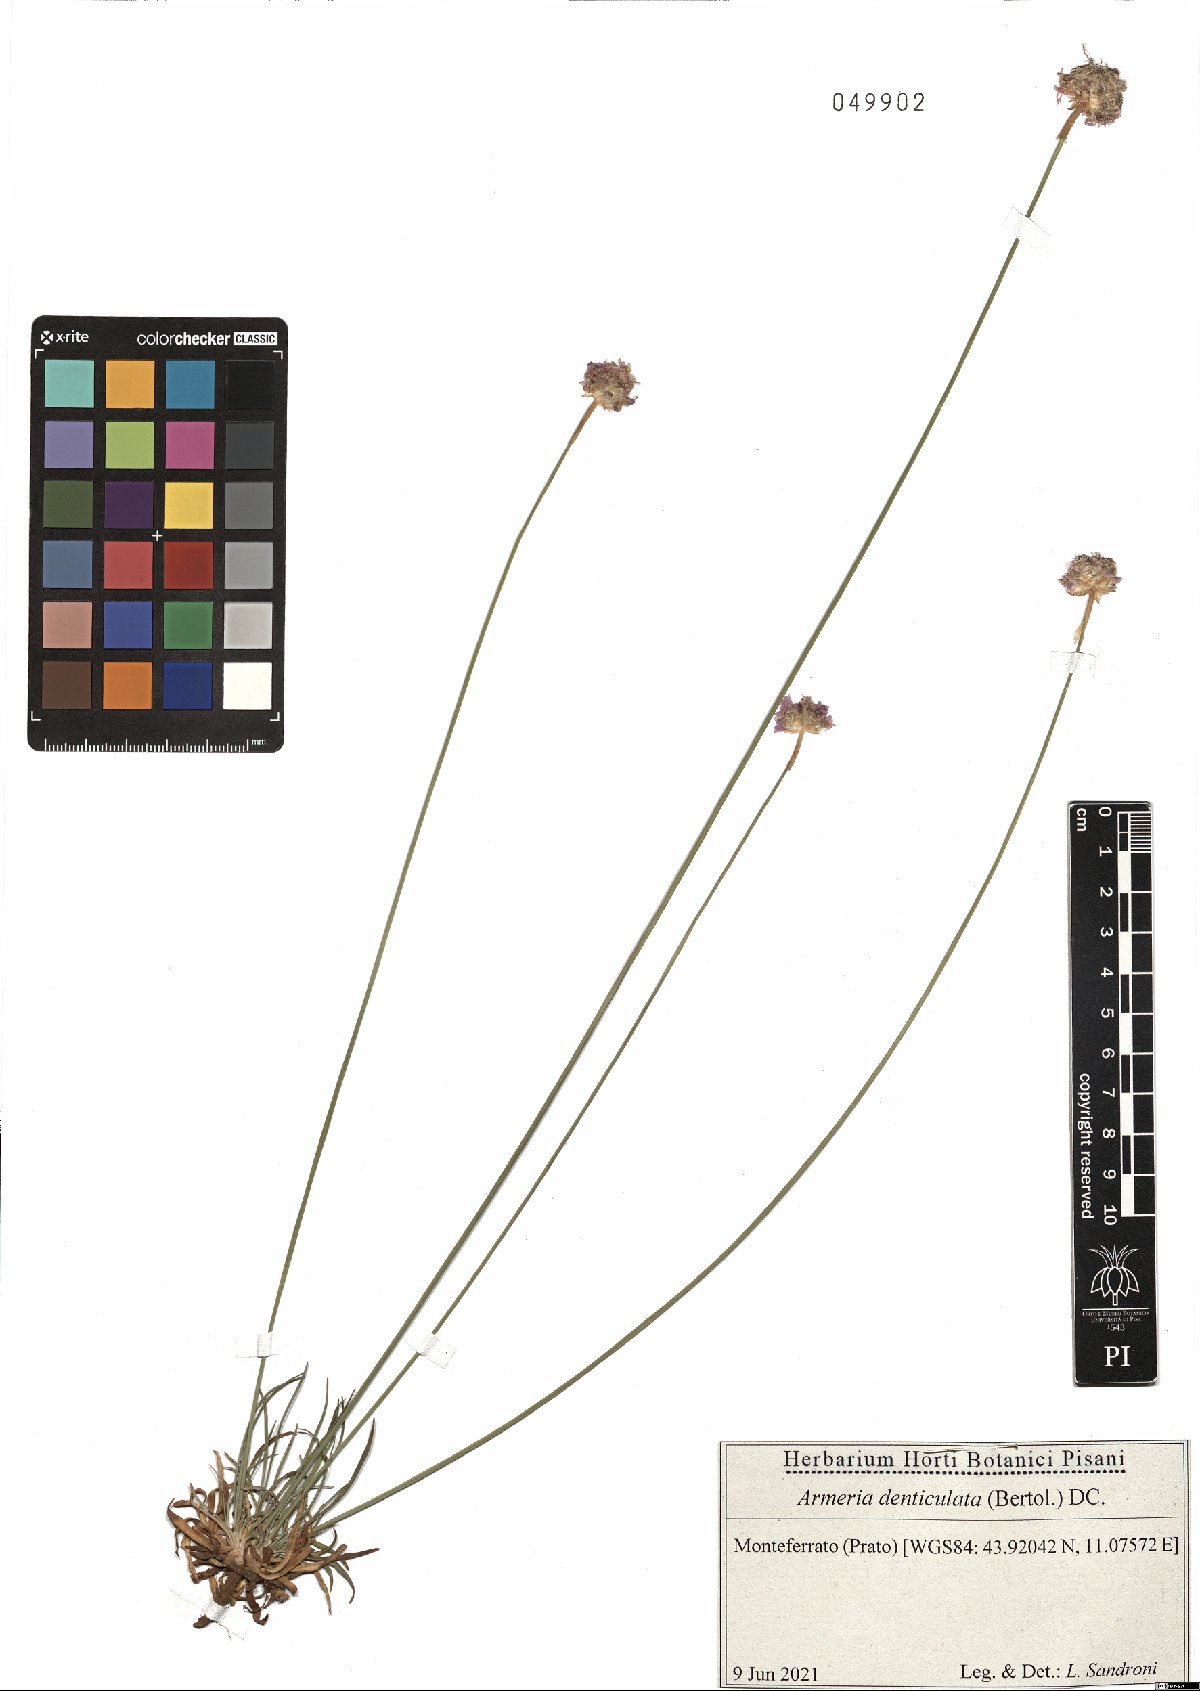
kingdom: Plantae
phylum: Tracheophyta
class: Magnoliopsida
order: Caryophyllales
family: Plumbaginaceae
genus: Armeria
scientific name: Armeria denticulata
